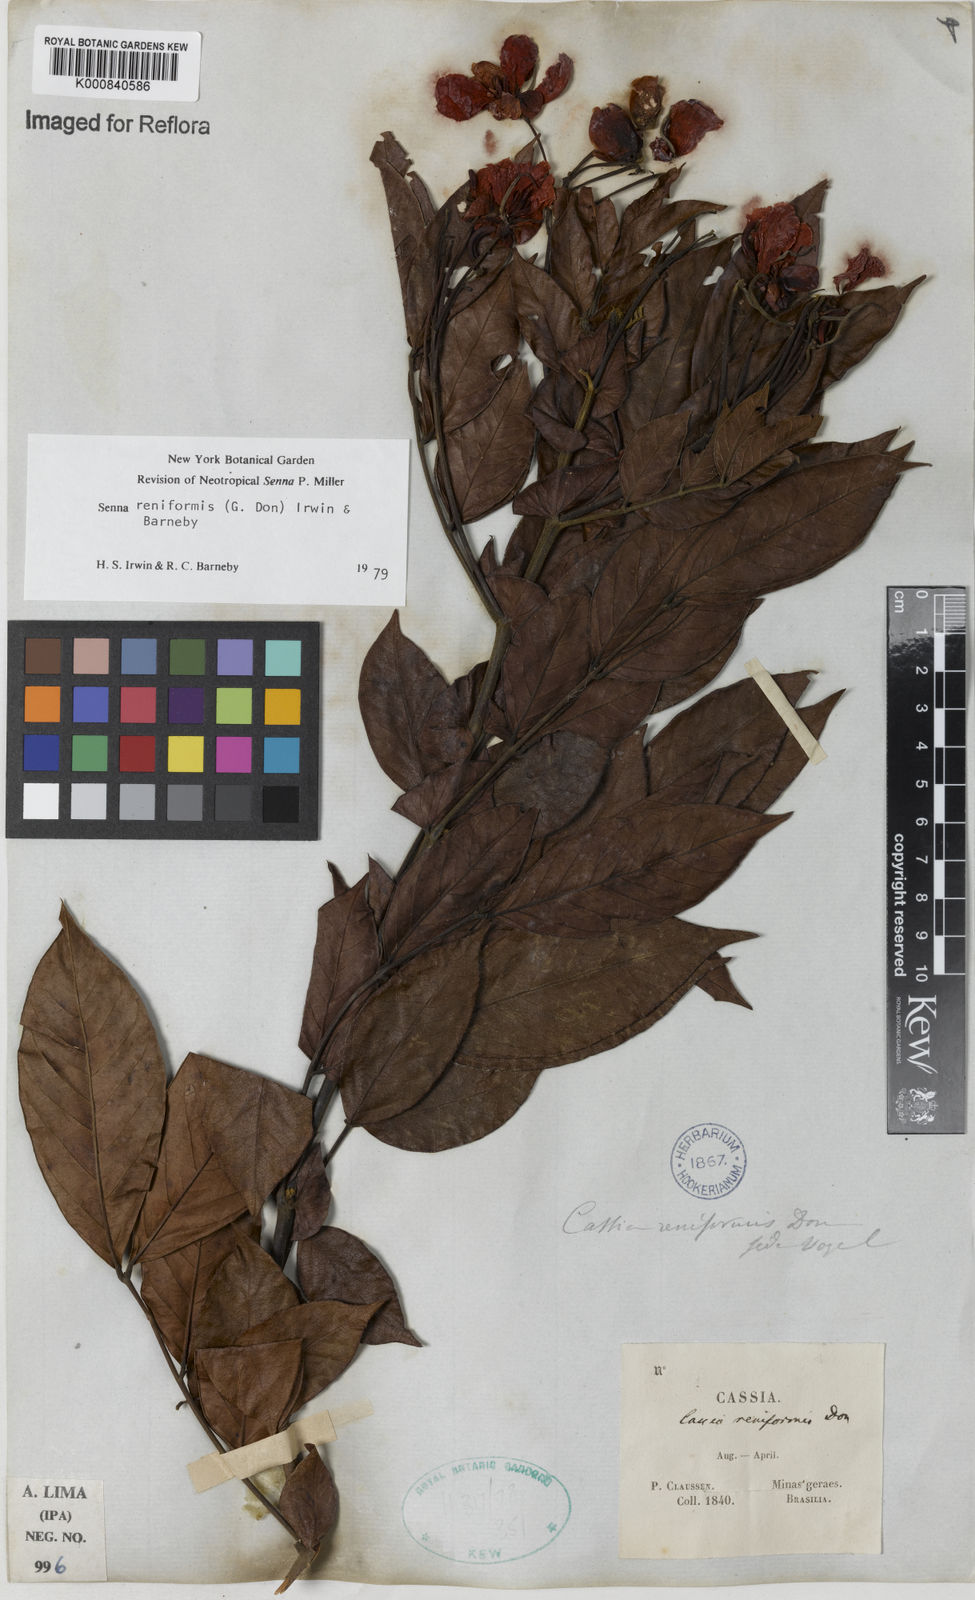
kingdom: Plantae
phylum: Tracheophyta
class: Magnoliopsida
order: Fabales
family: Fabaceae
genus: Senna
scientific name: Senna reniformis
